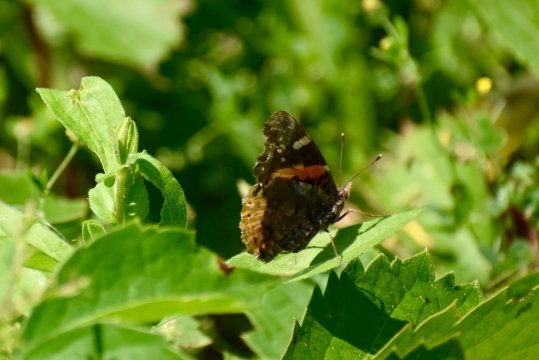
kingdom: Animalia
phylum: Arthropoda
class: Insecta
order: Lepidoptera
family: Nymphalidae
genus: Vanessa
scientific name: Vanessa atalanta
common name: Red Admiral
